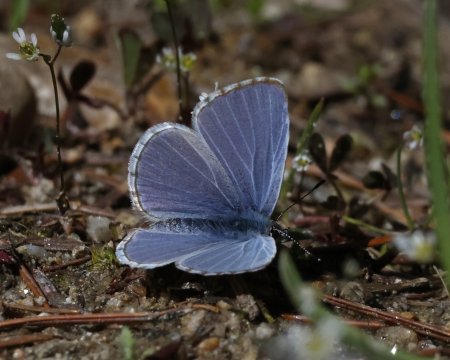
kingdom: Animalia
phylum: Arthropoda
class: Insecta
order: Lepidoptera
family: Lycaenidae
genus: Celastrina
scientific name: Celastrina asheri
